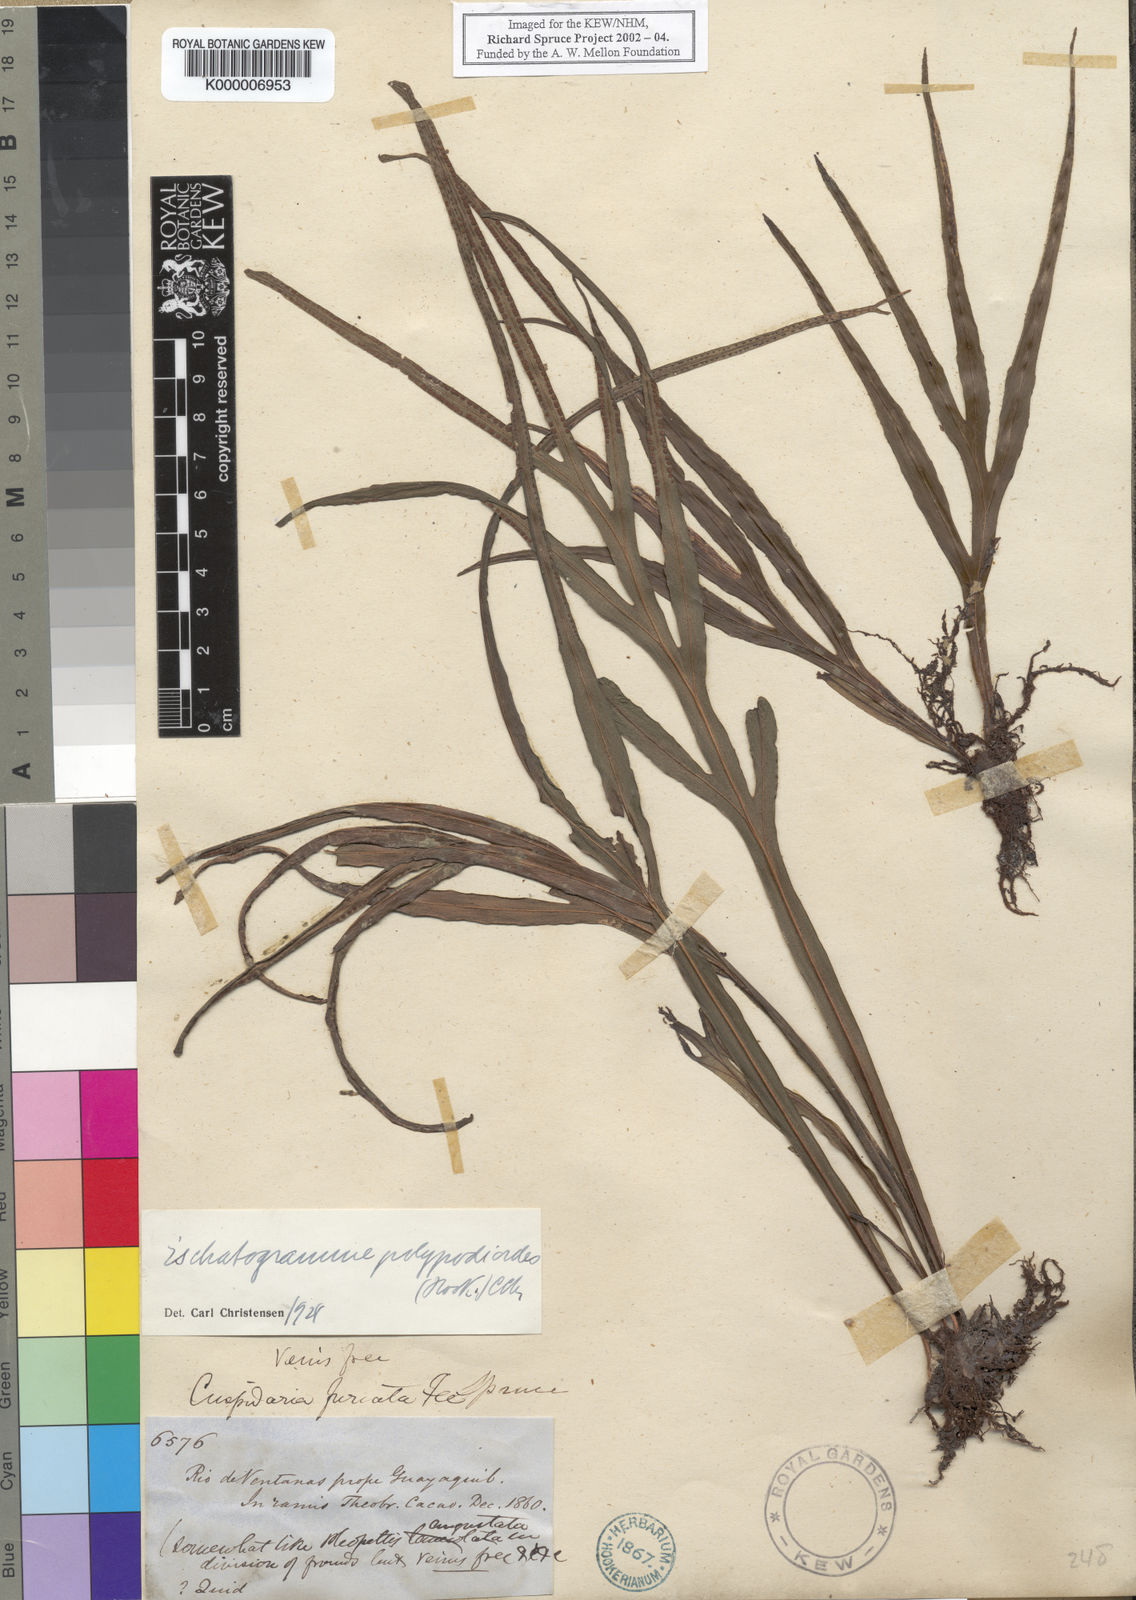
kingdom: Plantae
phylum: Tracheophyta
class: Polypodiopsida
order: Polypodiales
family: Polypodiaceae
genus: Pleopeltis
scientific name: Pleopeltis hookeri
